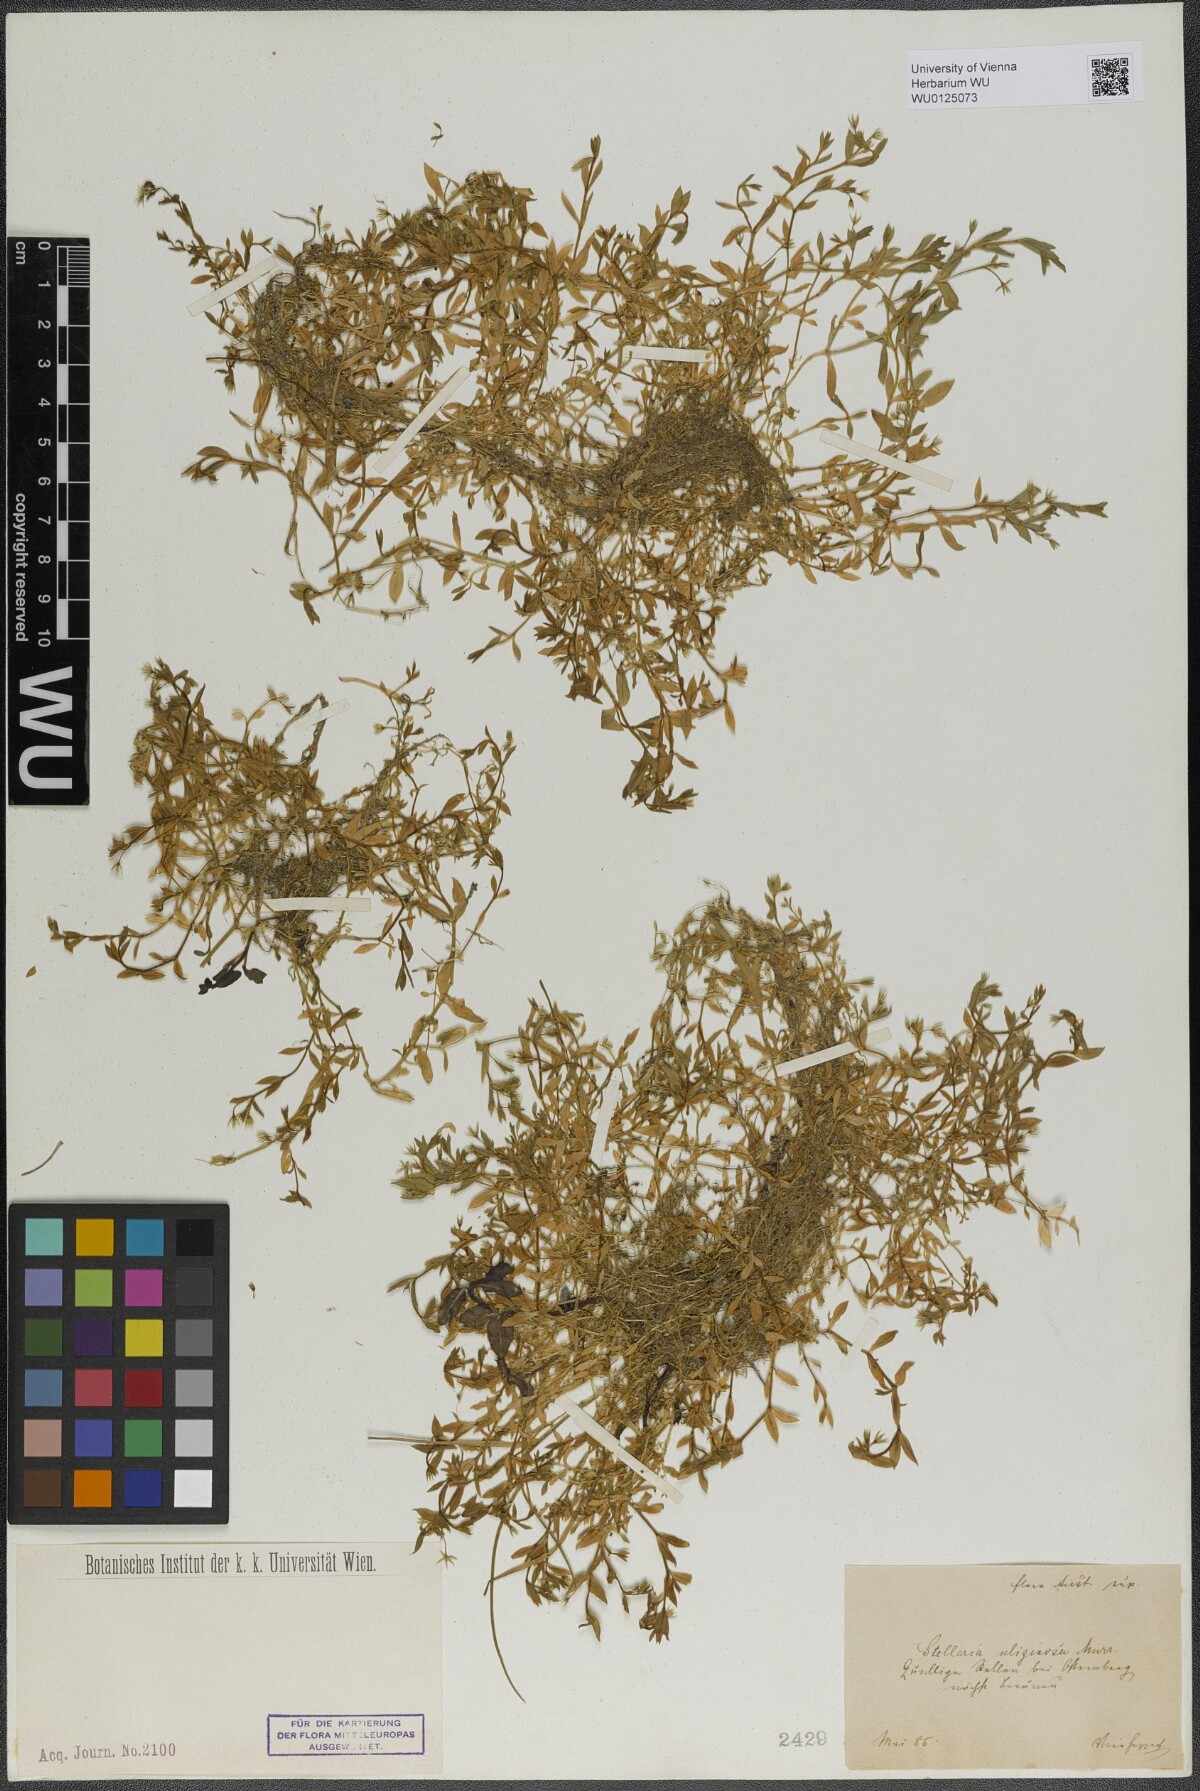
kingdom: Plantae
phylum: Tracheophyta
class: Magnoliopsida
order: Caryophyllales
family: Caryophyllaceae
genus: Stellaria
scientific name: Stellaria alsine
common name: Bog stitchwort
